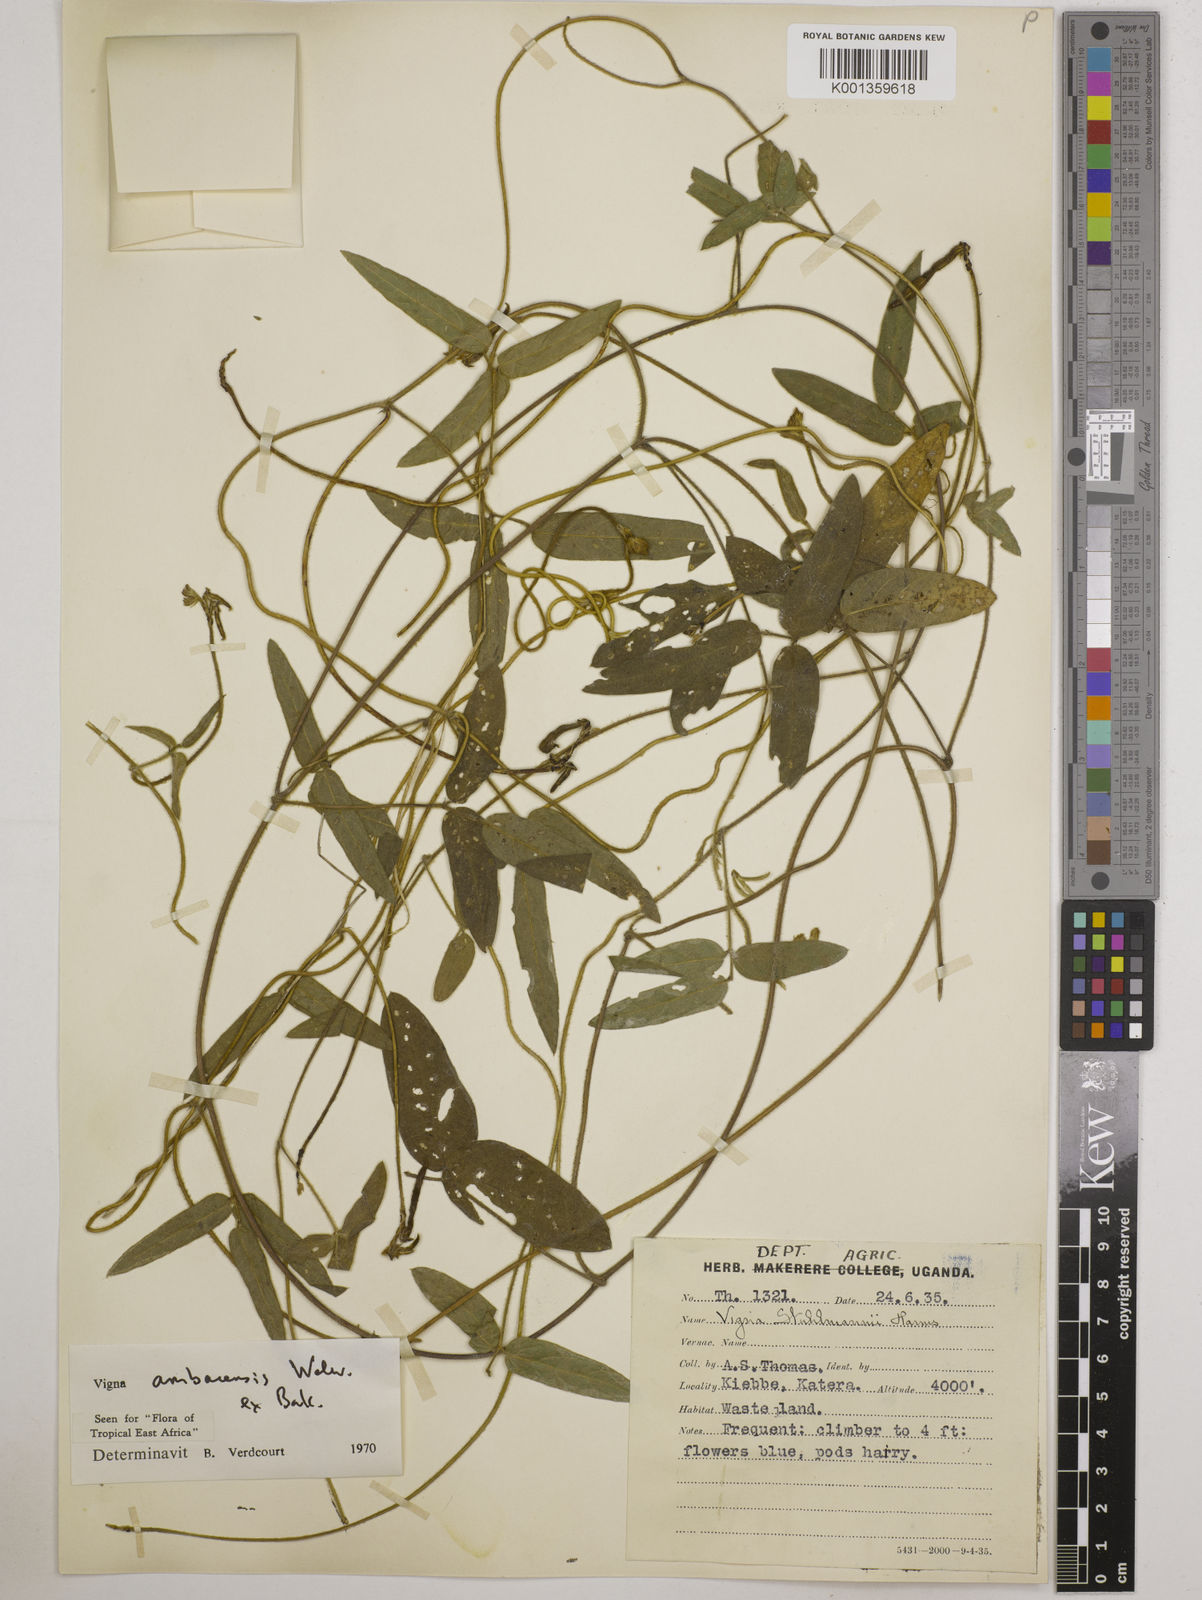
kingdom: Plantae
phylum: Tracheophyta
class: Magnoliopsida
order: Fabales
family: Fabaceae
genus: Vigna
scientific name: Vigna ambacensis
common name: Tsarkiyan zomo
